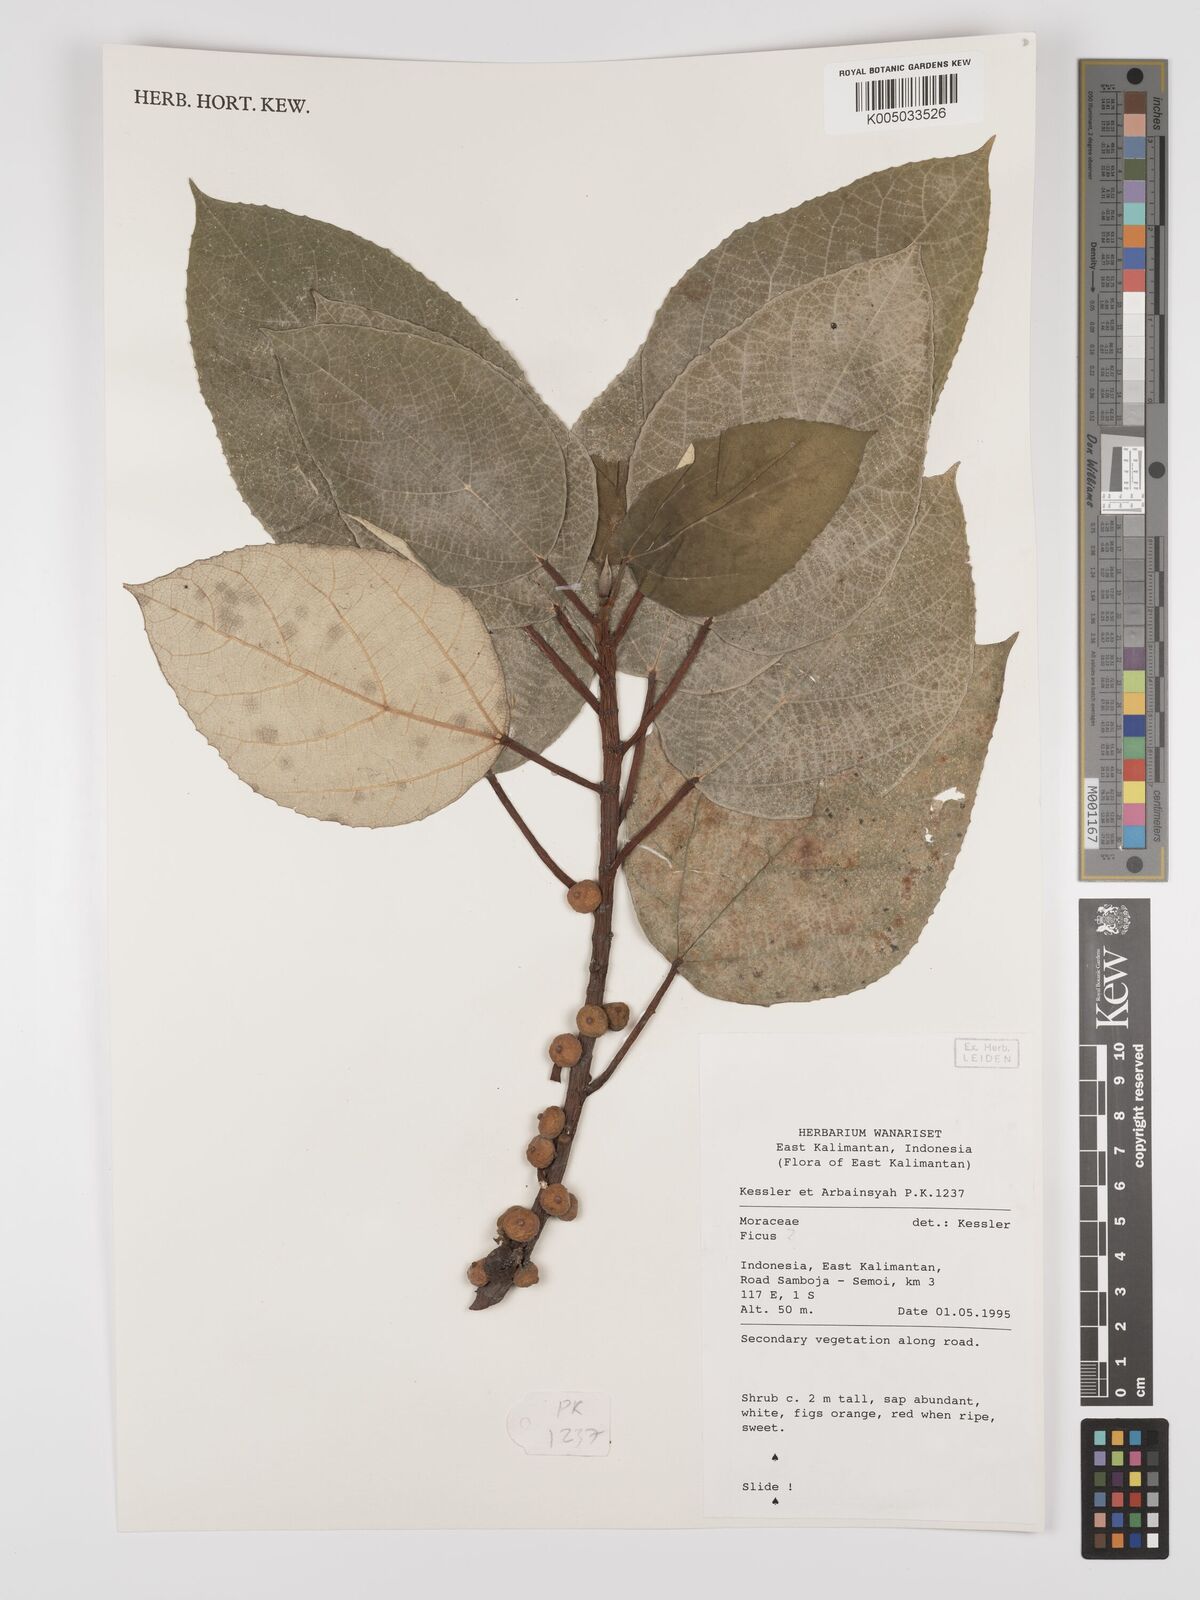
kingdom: Plantae
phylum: Tracheophyta
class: Magnoliopsida
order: Rosales
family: Moraceae
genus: Ficus
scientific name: Ficus
